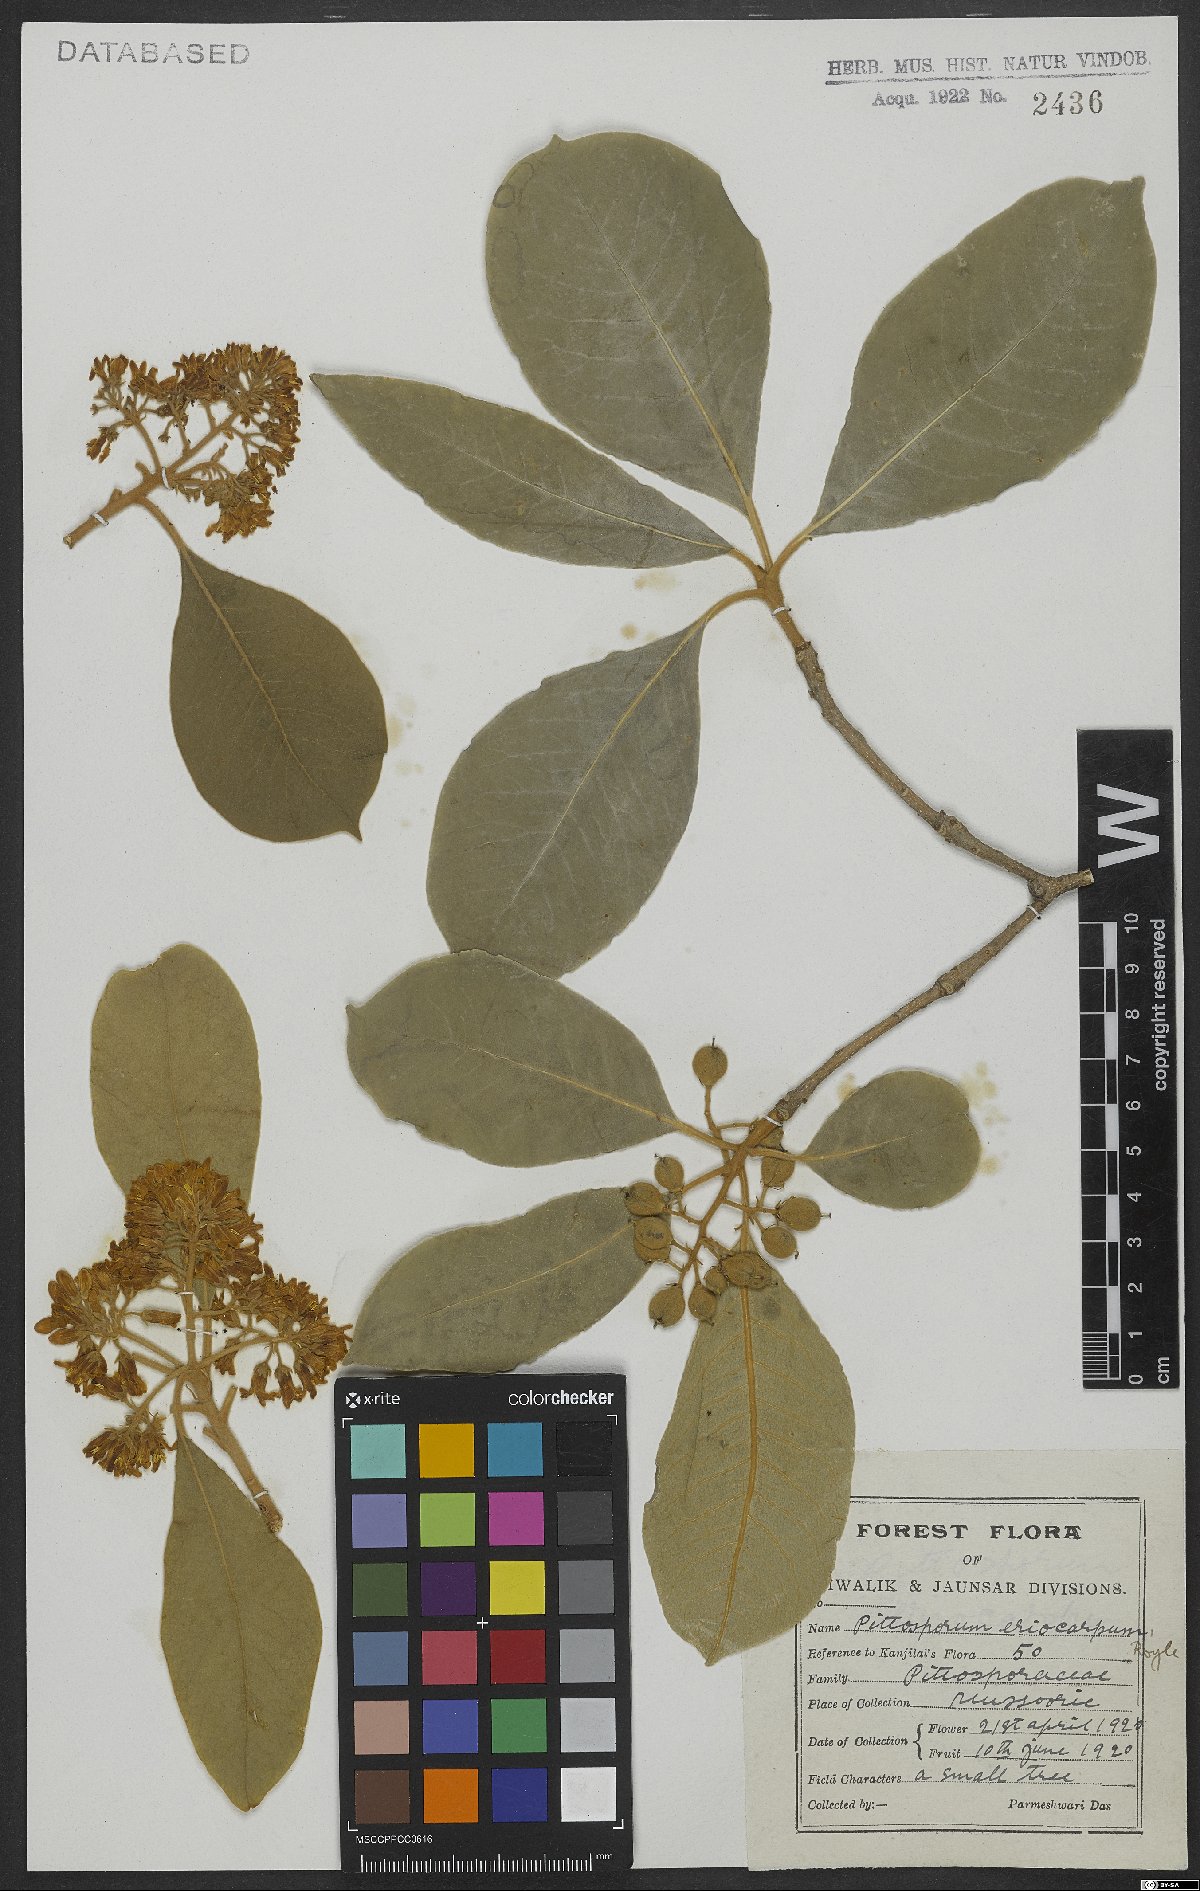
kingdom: Plantae
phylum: Tracheophyta
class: Magnoliopsida
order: Apiales
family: Pittosporaceae
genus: Pittosporum
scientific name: Pittosporum eriocarpum
